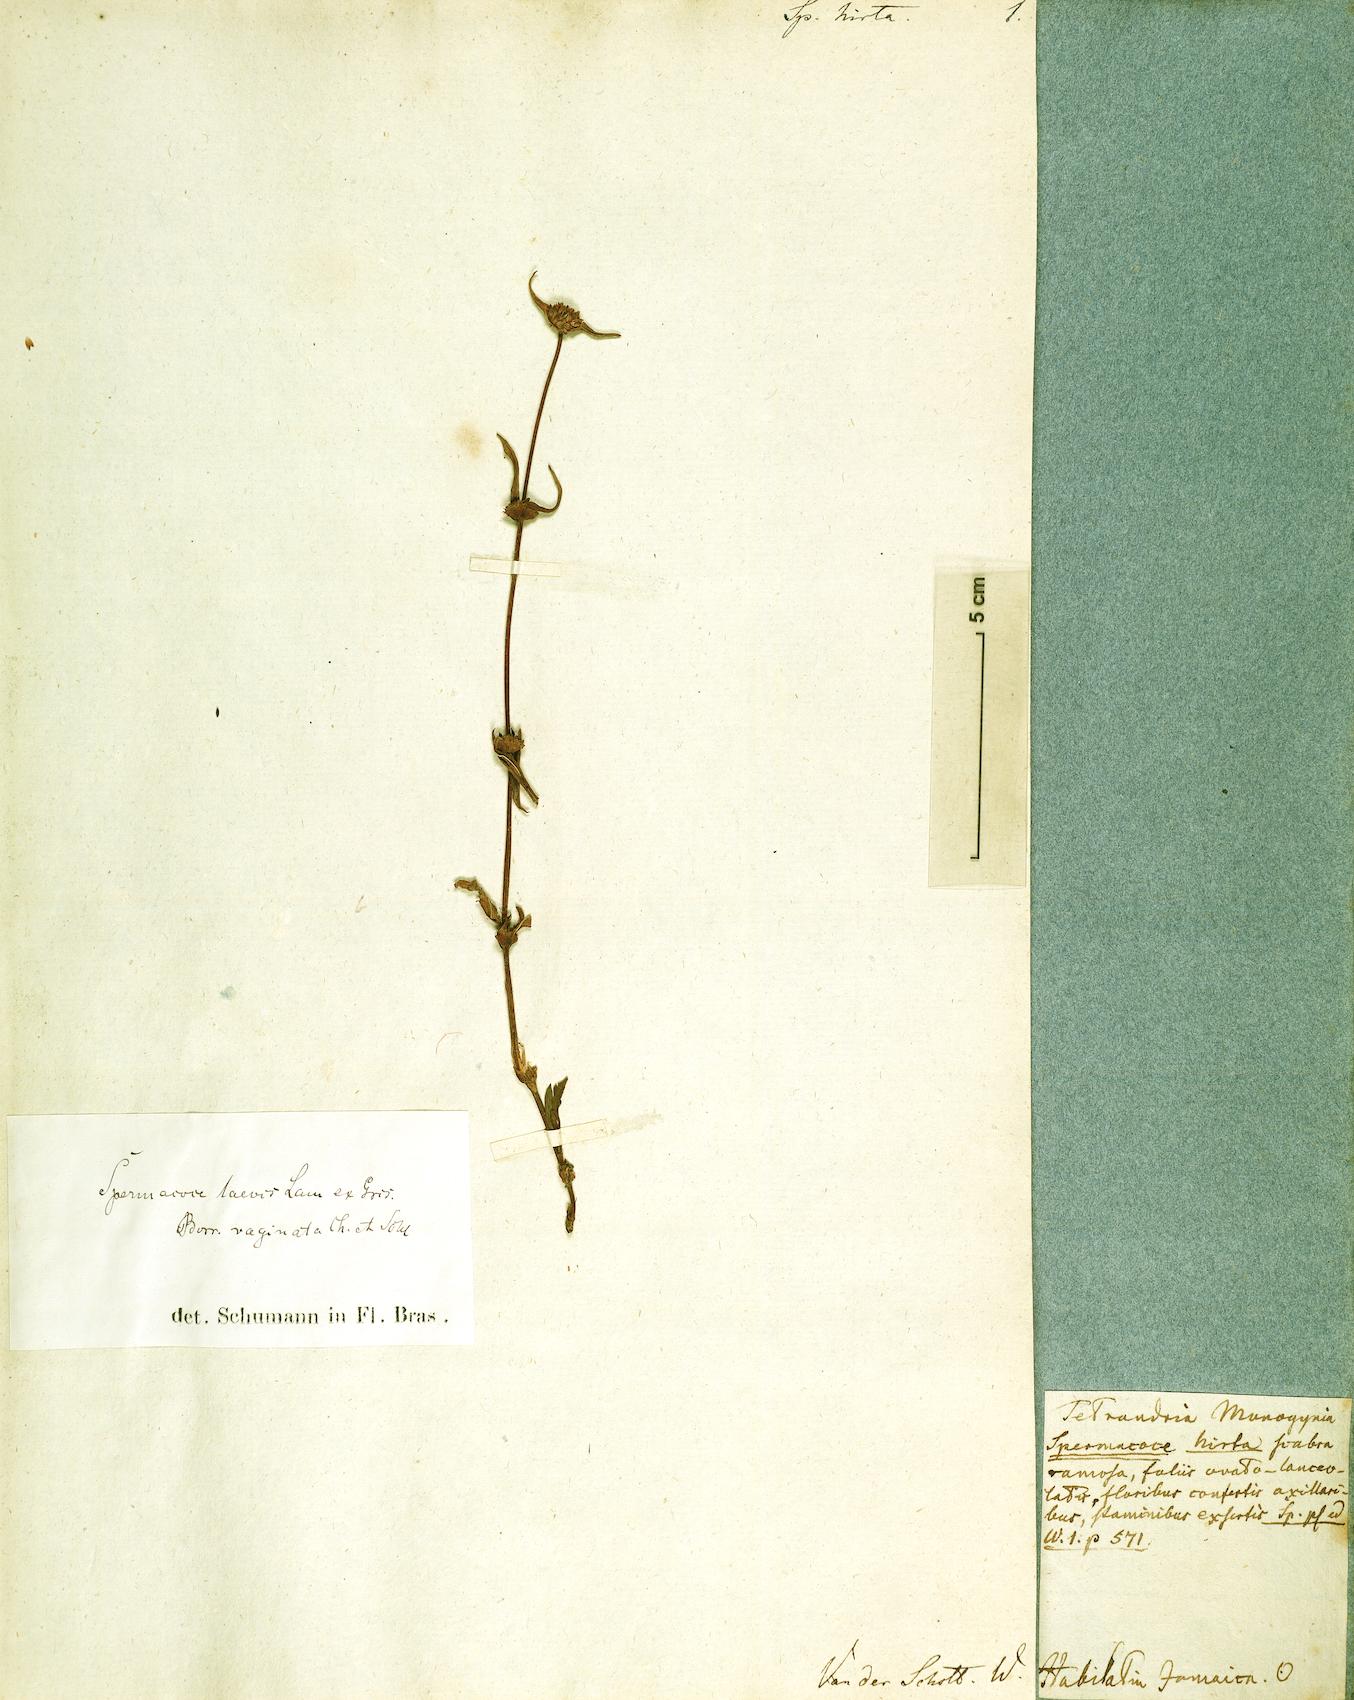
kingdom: Plantae
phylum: Tracheophyta
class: Magnoliopsida
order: Gentianales
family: Rubiaceae
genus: Spermacoce
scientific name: Spermacoce hirta
